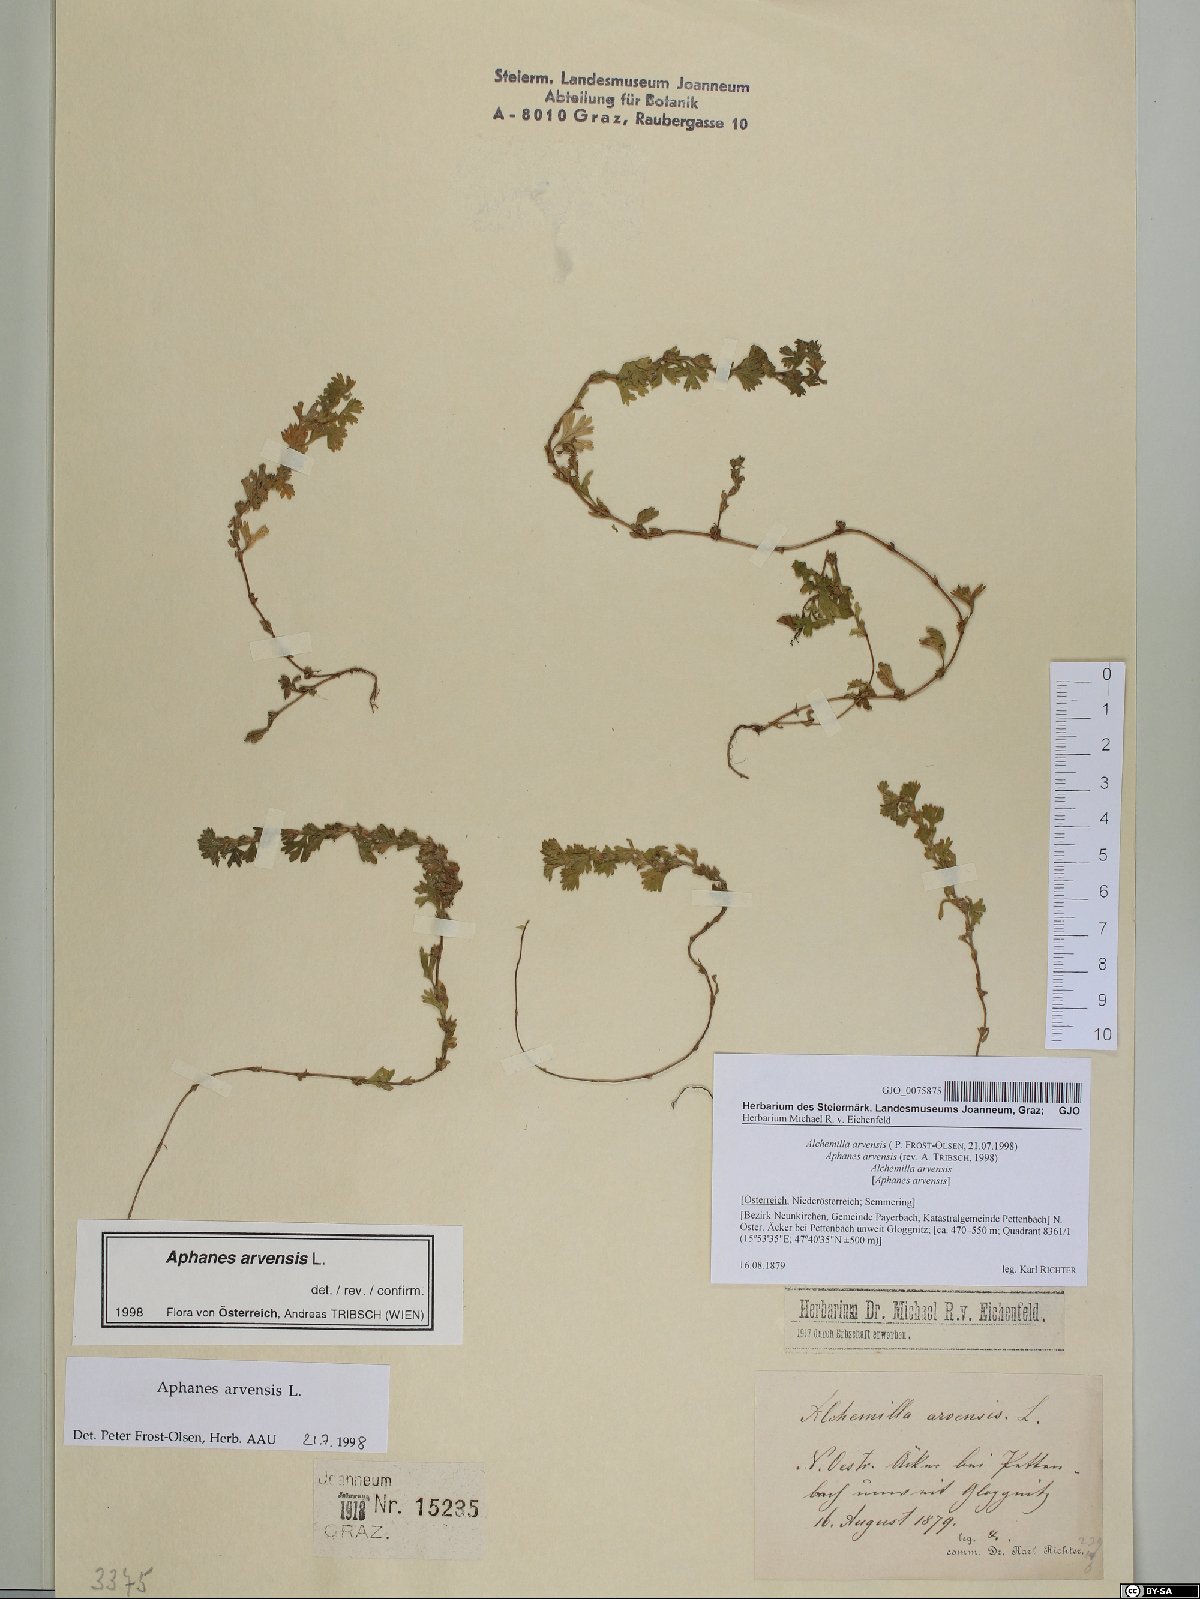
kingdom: Plantae
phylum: Tracheophyta
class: Magnoliopsida
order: Rosales
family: Rosaceae
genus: Aphanes
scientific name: Aphanes arvensis
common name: Parsley-piert
